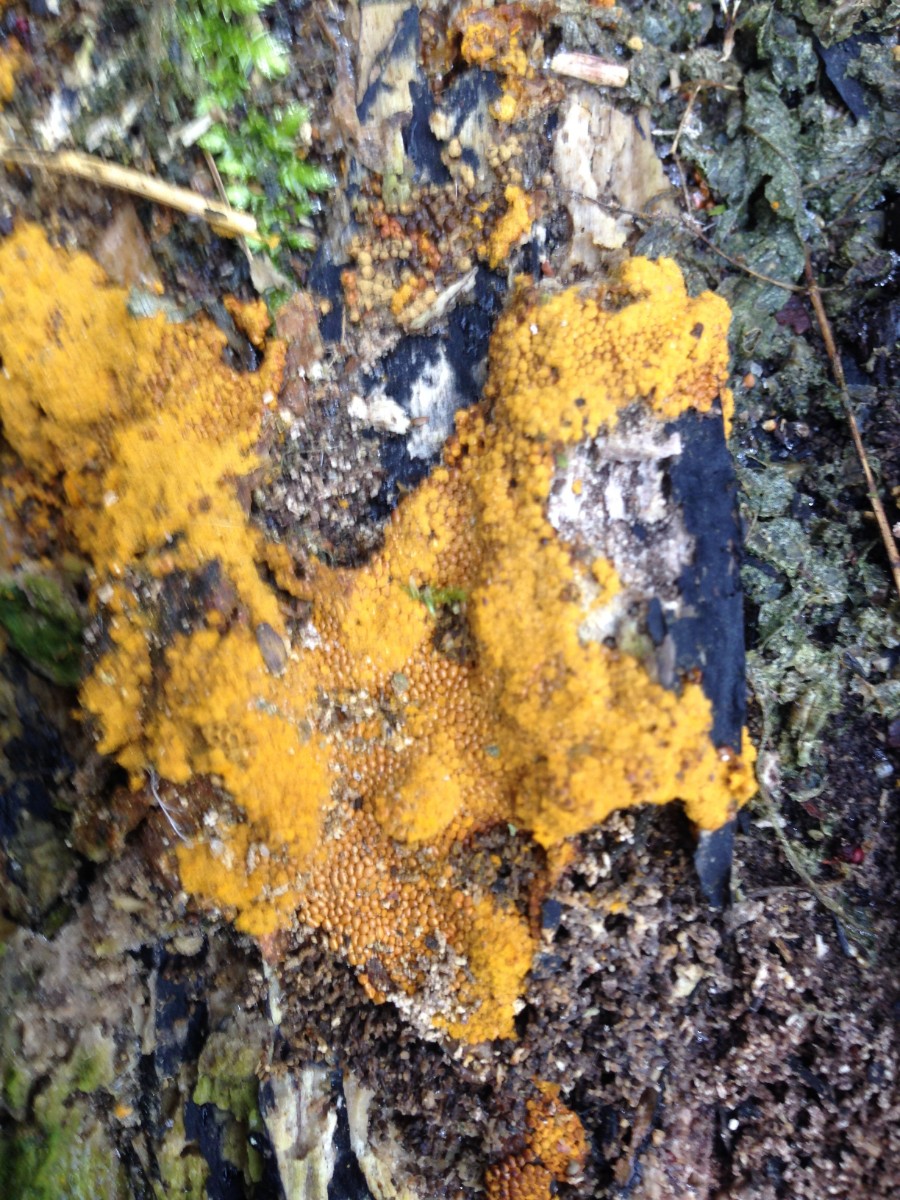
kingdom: Protozoa
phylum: Mycetozoa
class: Myxomycetes
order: Trichiales
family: Trichiaceae
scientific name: Trichiaceae
